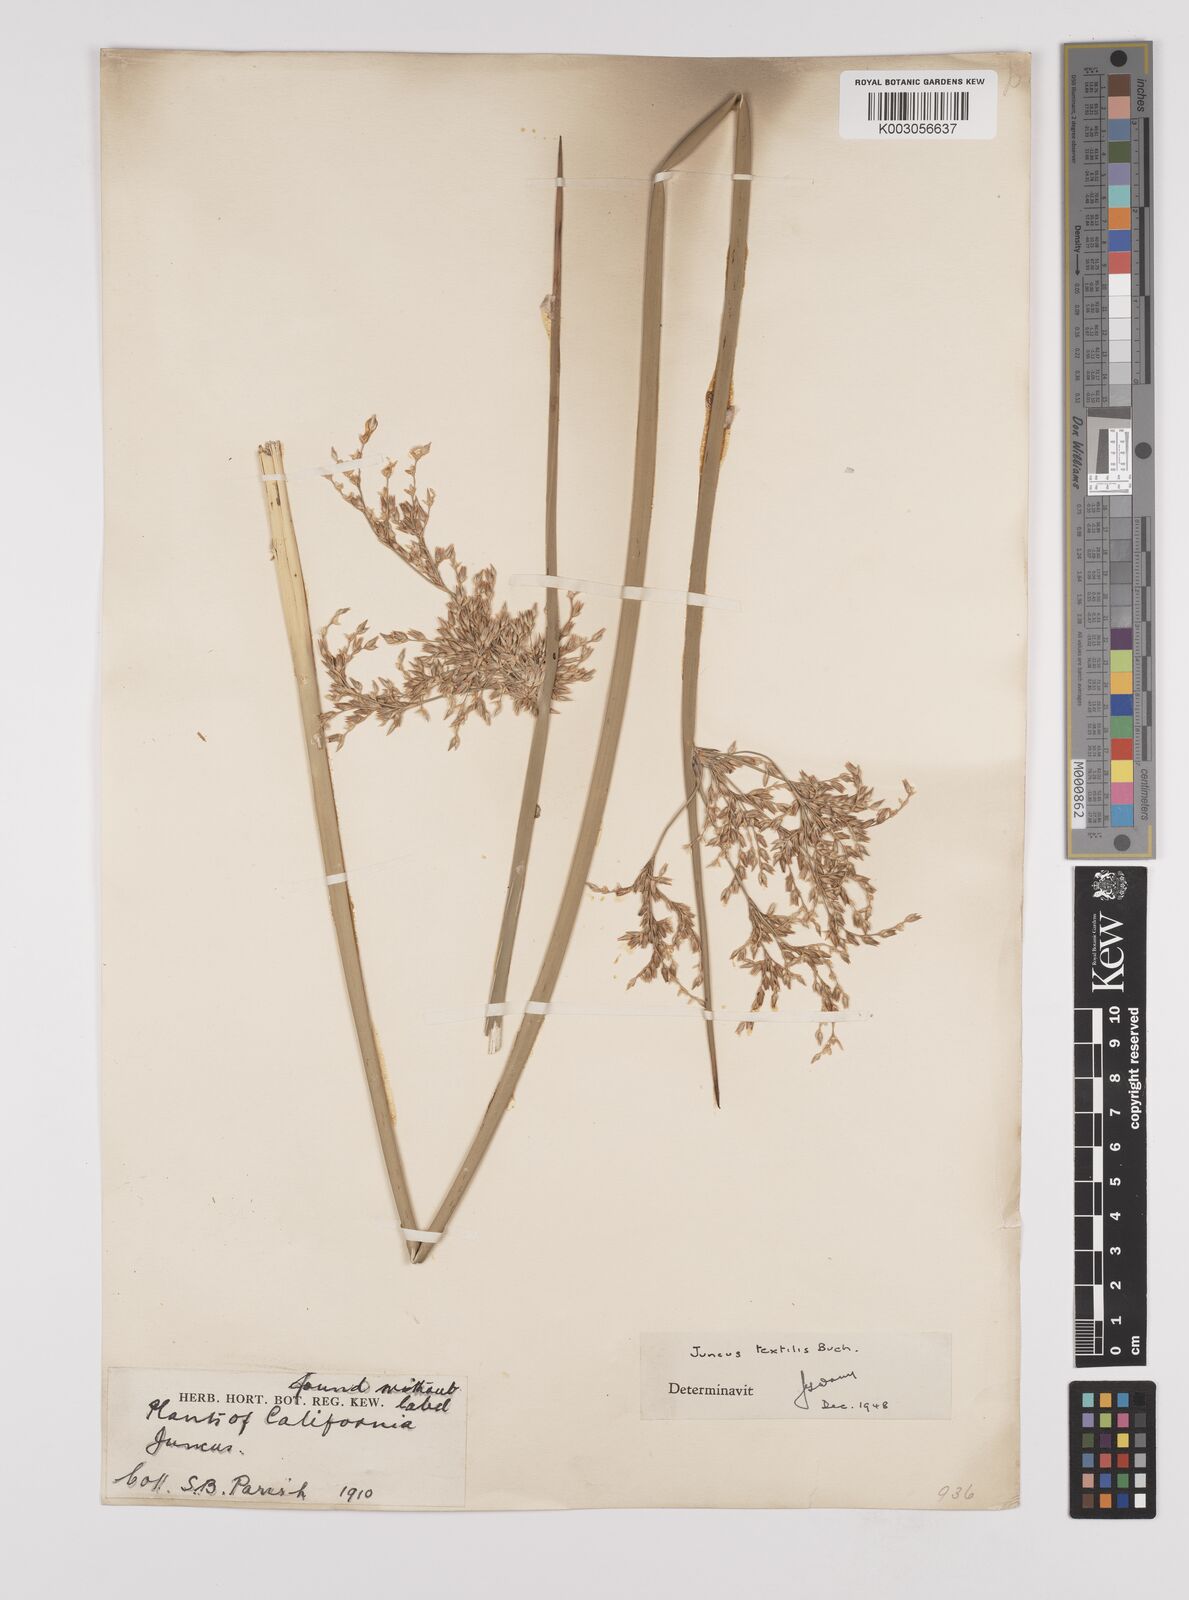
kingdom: Plantae
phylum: Tracheophyta
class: Liliopsida
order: Poales
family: Juncaceae
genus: Juncus
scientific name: Juncus textilis
